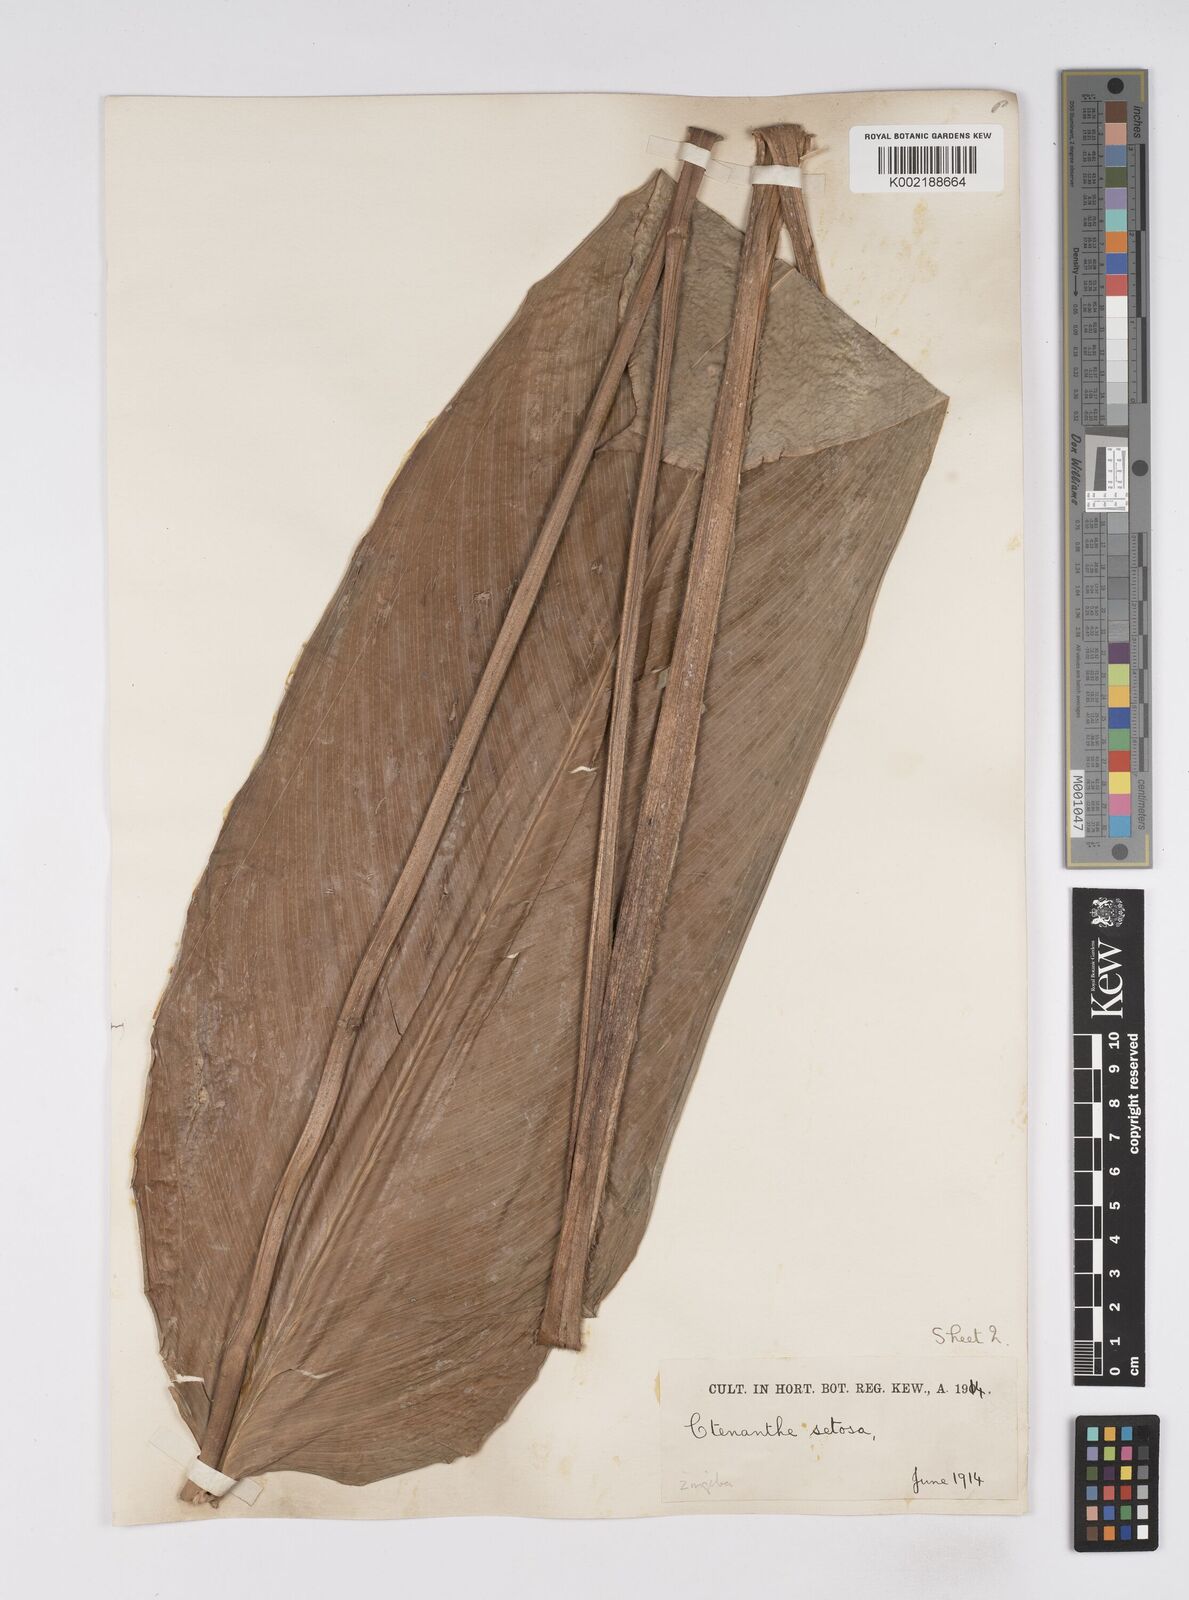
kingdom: Plantae
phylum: Tracheophyta
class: Liliopsida
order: Zingiberales
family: Marantaceae
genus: Ctenanthe
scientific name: Ctenanthe
